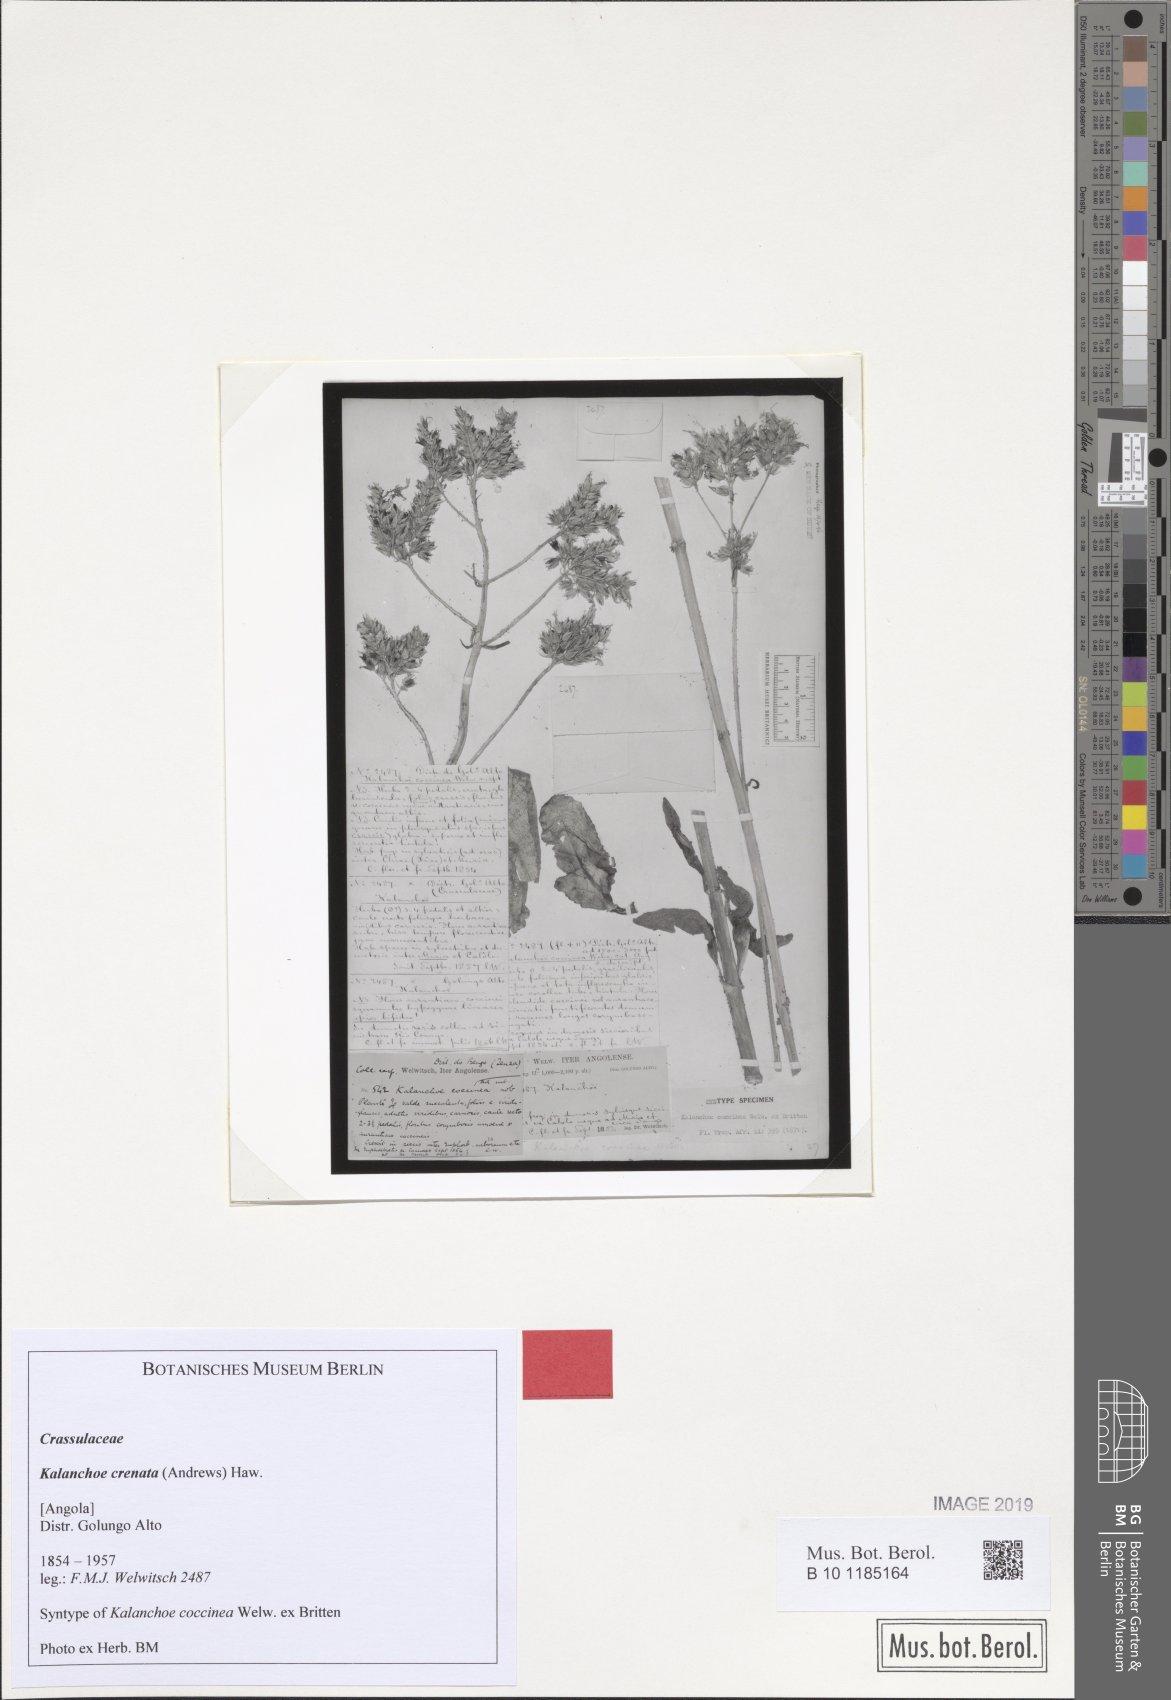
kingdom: Plantae
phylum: Tracheophyta
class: Magnoliopsida
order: Saxifragales
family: Crassulaceae
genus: Kalanchoe
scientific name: Kalanchoe crenata
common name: Neverdie
